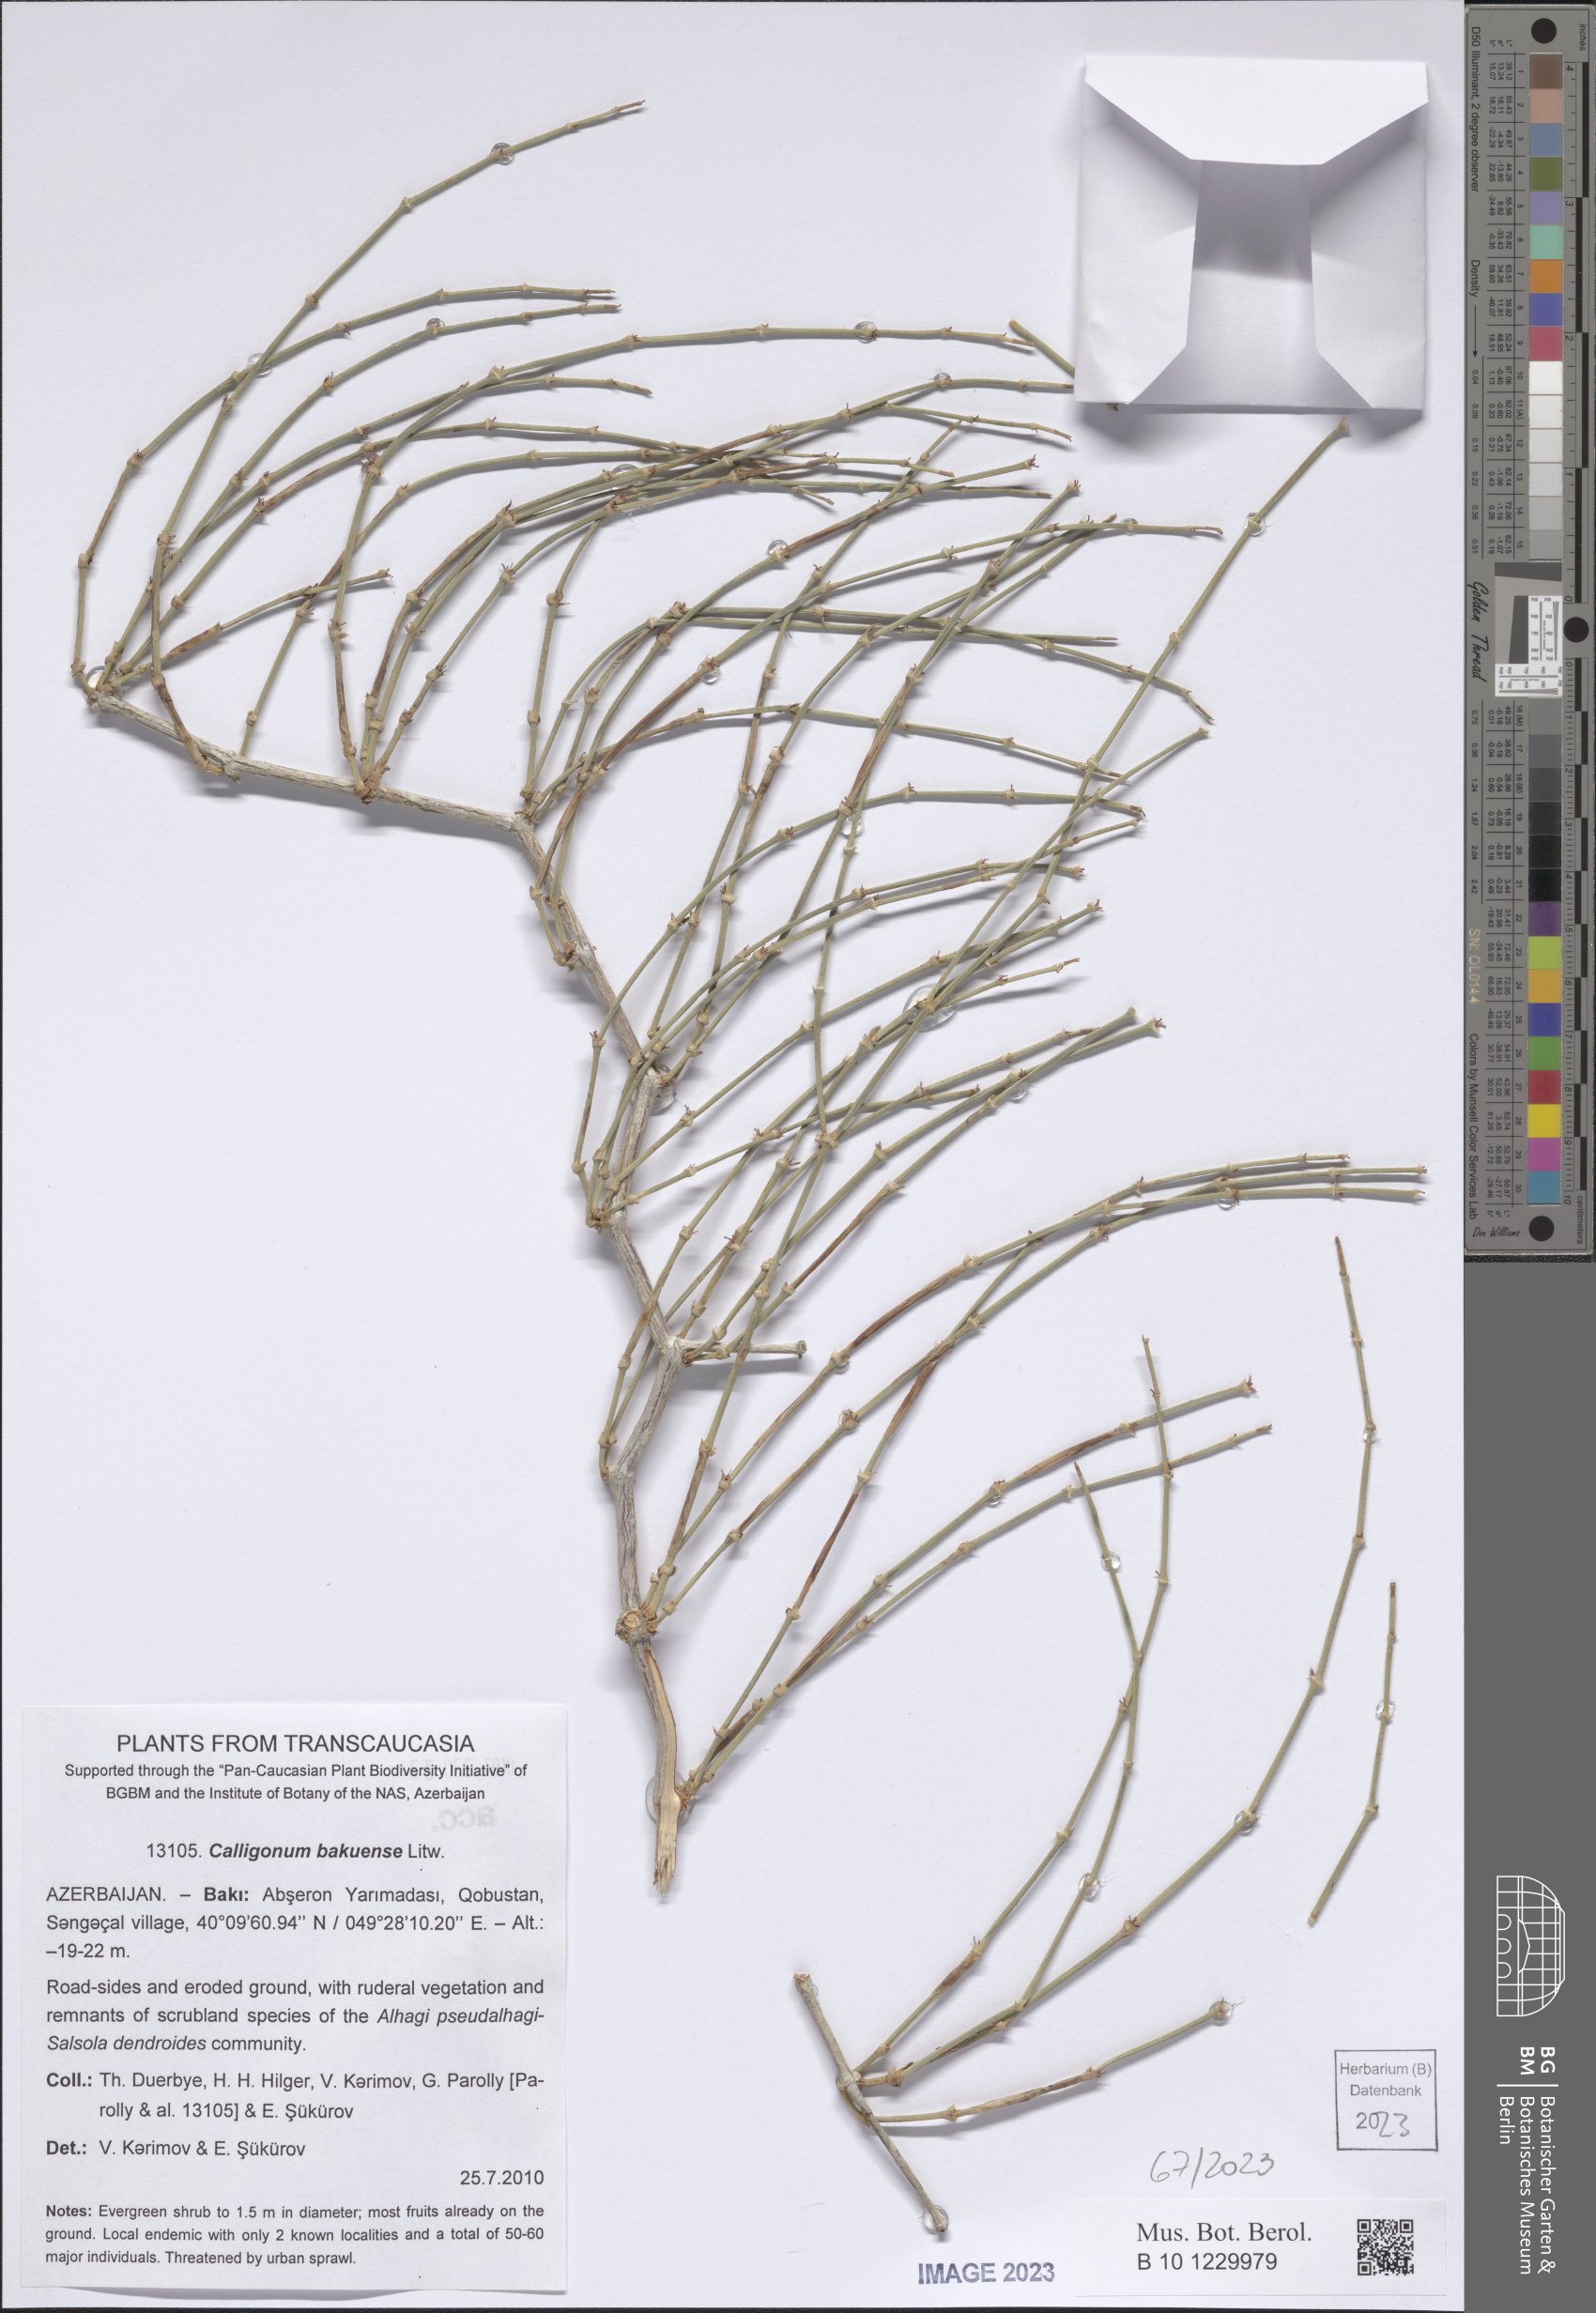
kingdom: Plantae
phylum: Tracheophyta
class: Magnoliopsida
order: Caryophyllales
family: Polygonaceae
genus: Calligonum
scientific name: Calligonum bakuense
